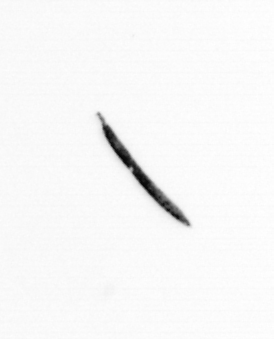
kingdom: Bacteria
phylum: Cyanobacteria
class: Cyanobacteriia
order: Cyanobacteriales
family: Microcoleaceae
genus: Trichodesmium
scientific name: Trichodesmium
